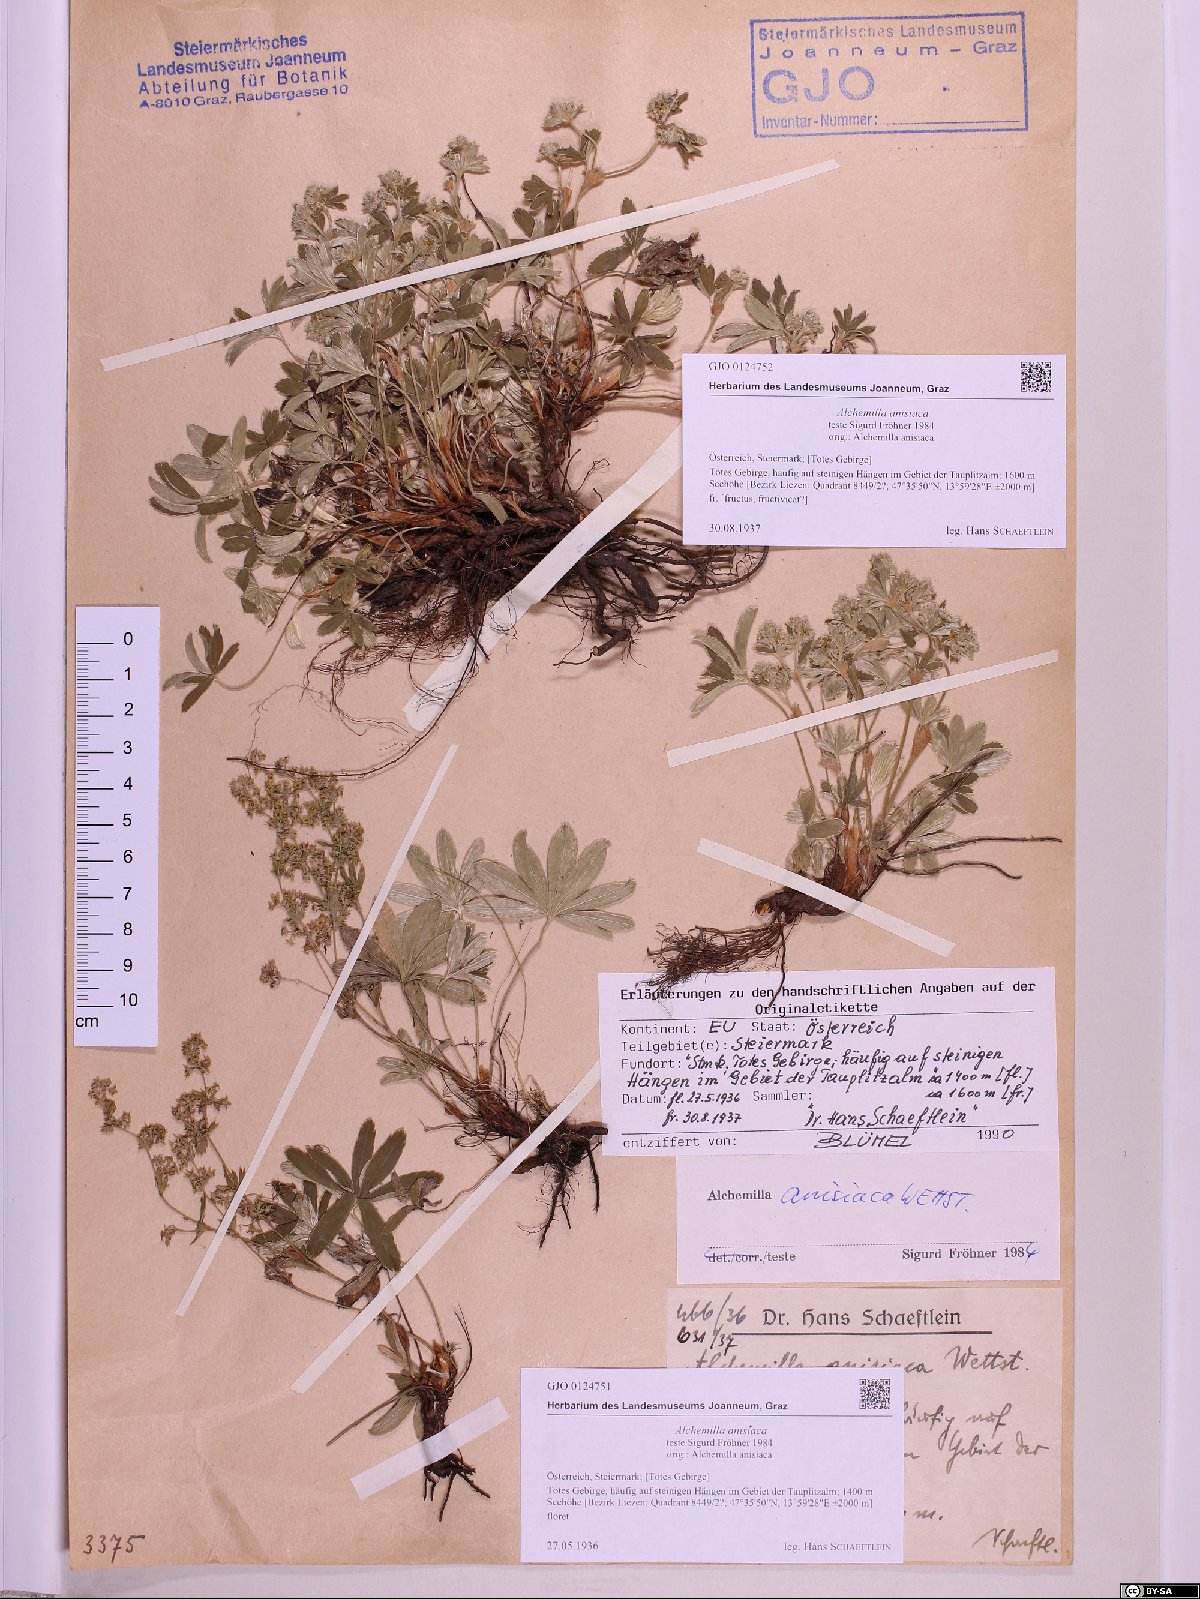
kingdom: Plantae
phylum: Tracheophyta
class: Magnoliopsida
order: Rosales
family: Rosaceae
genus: Alchemilla
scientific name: Alchemilla anisiaca
